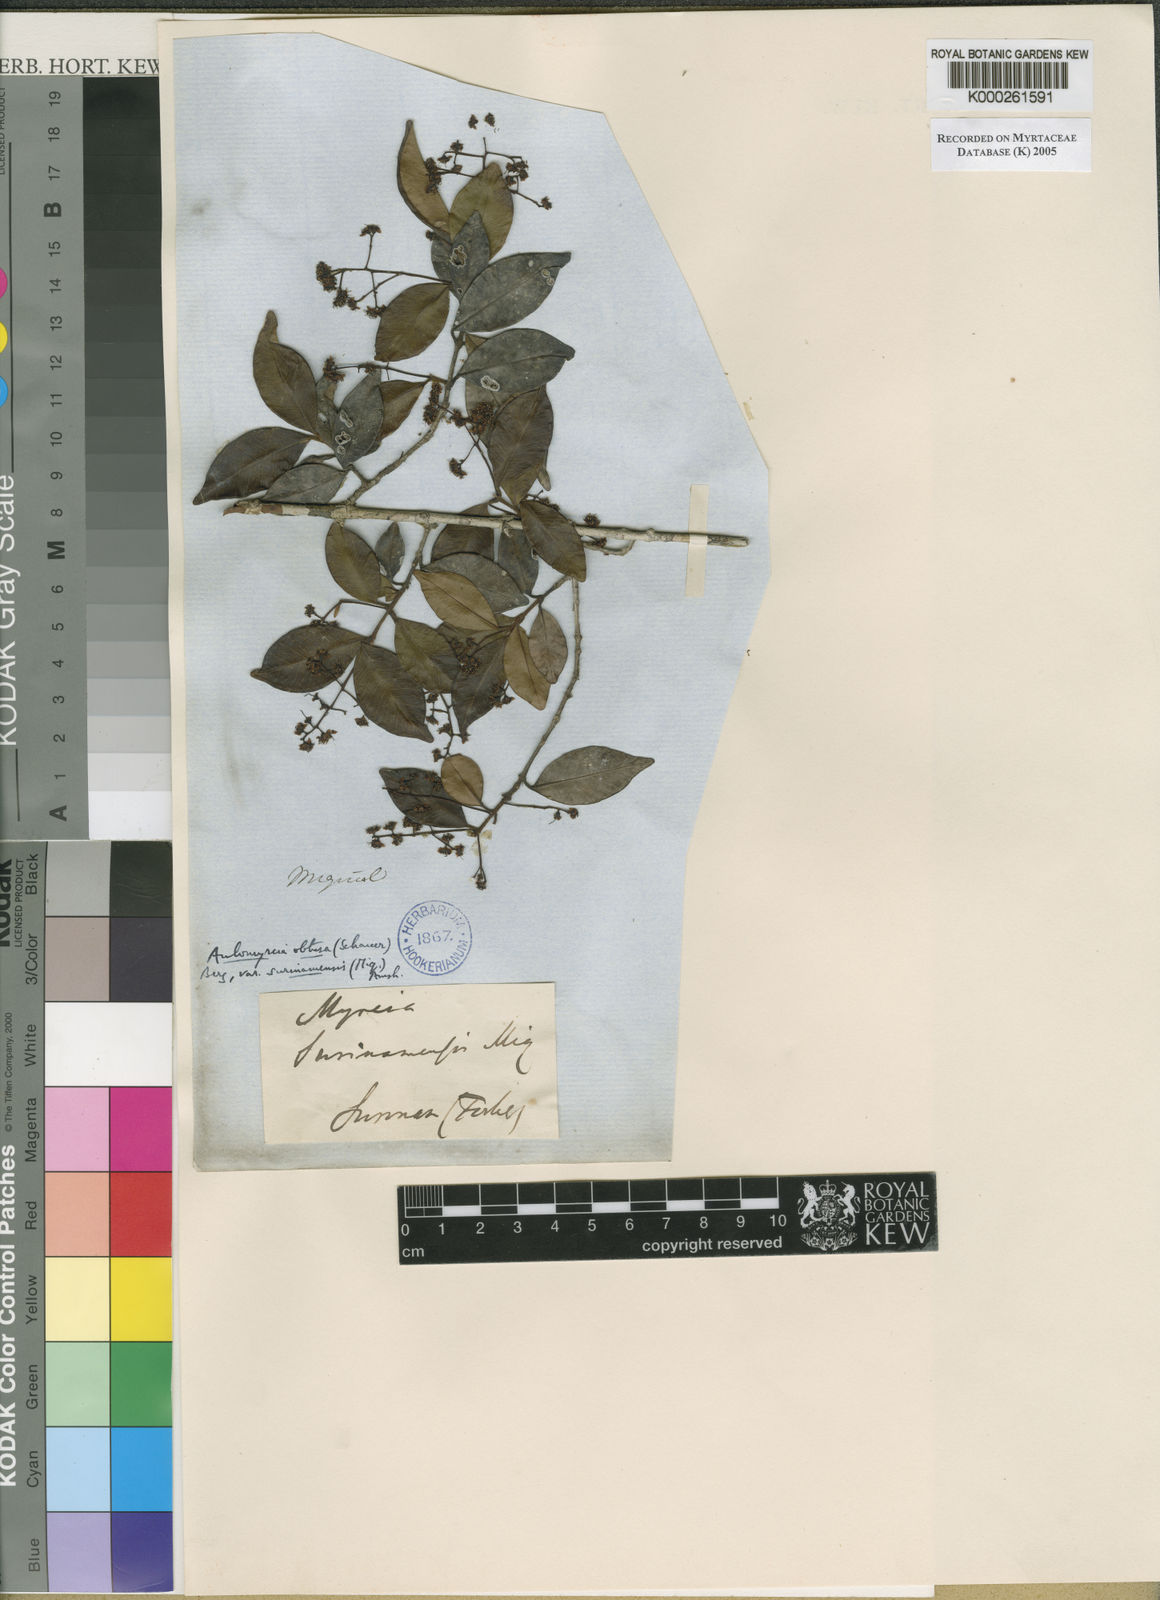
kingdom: Plantae
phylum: Tracheophyta
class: Magnoliopsida
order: Myrtales
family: Myrtaceae
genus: Myrcia
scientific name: Myrcia guianensis
